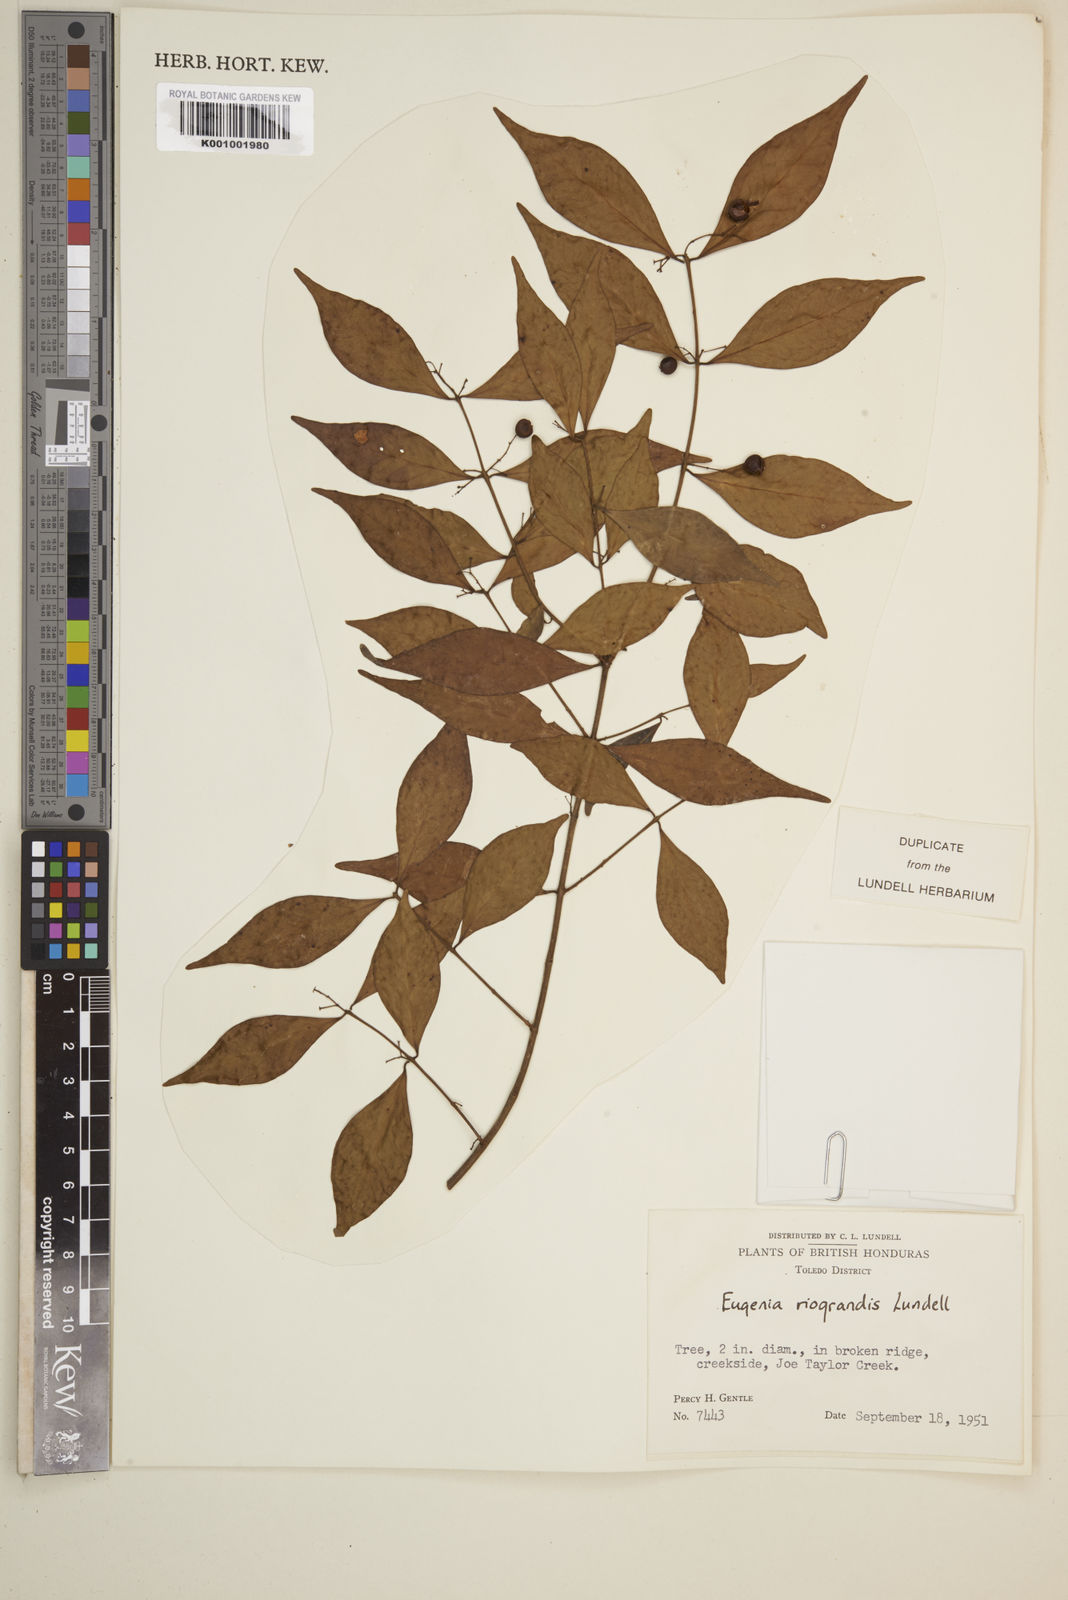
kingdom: Plantae
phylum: Tracheophyta
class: Magnoliopsida
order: Myrtales
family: Myrtaceae
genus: Eugenia
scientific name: Eugenia riograndis
